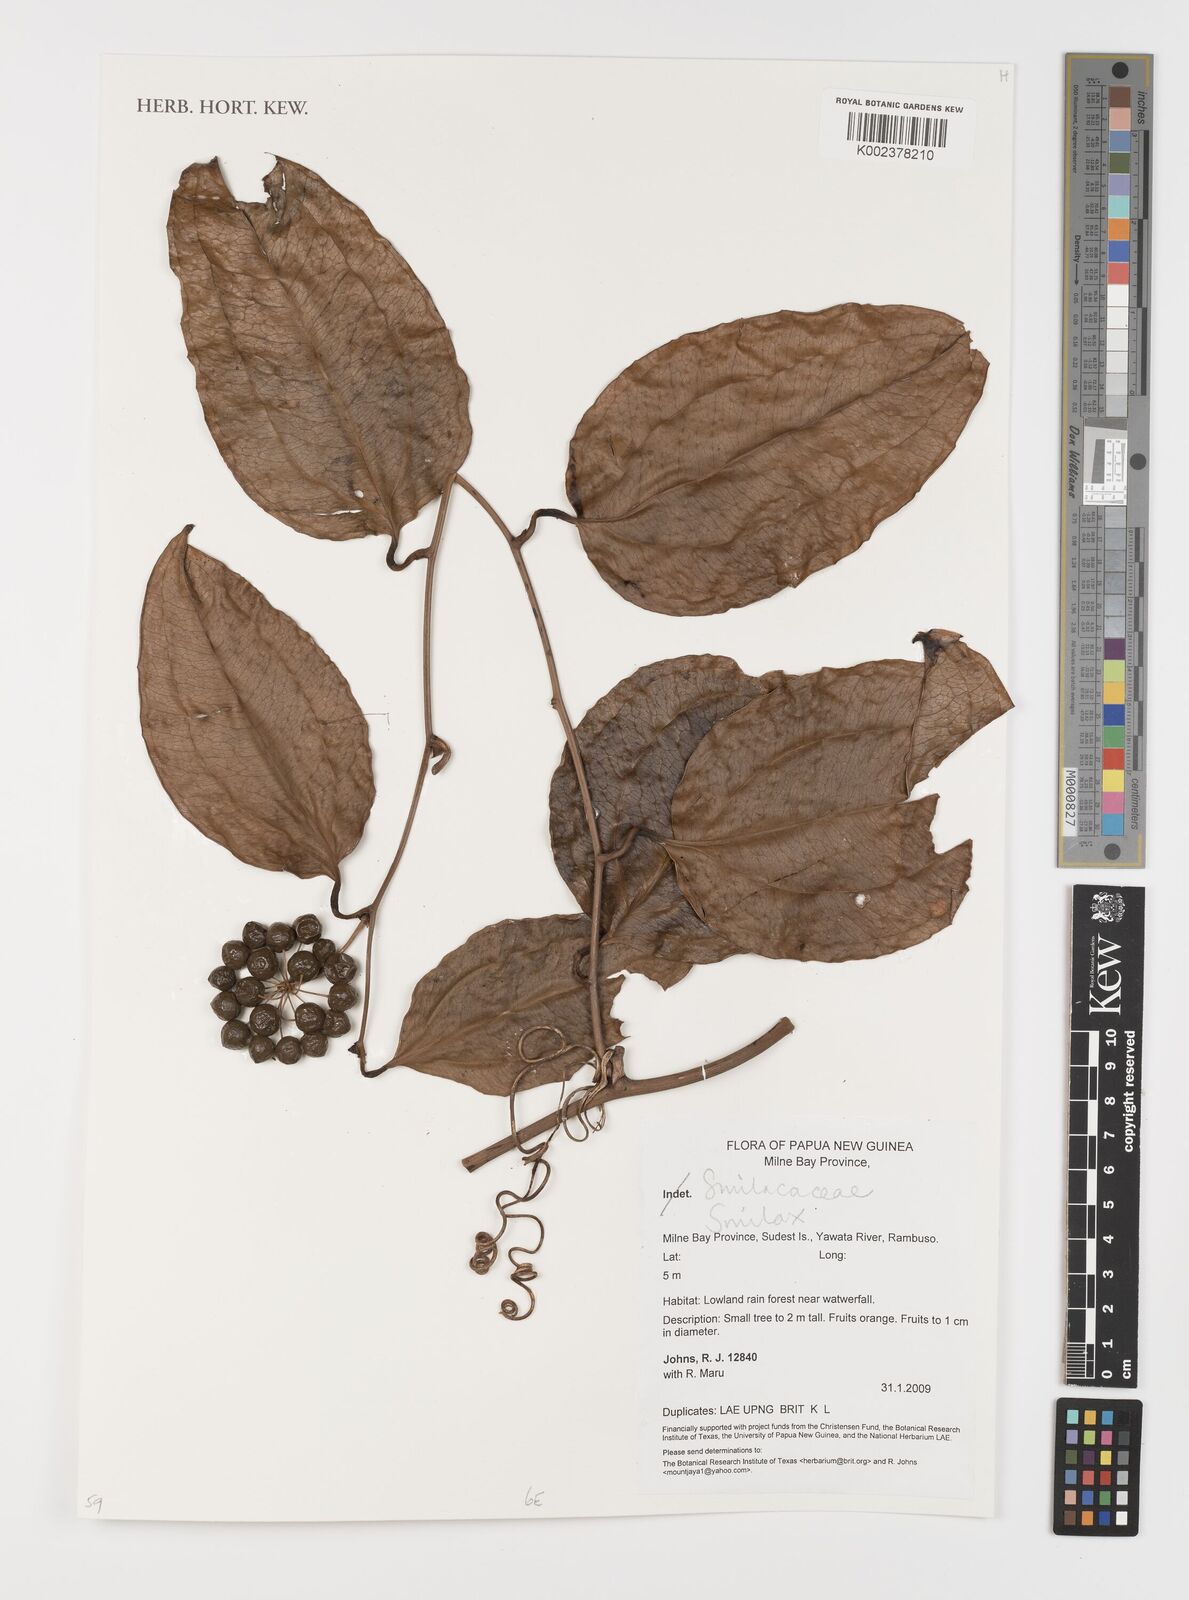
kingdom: Plantae
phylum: Tracheophyta
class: Liliopsida
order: Liliales
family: Smilacaceae
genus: Smilax
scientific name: Smilax
